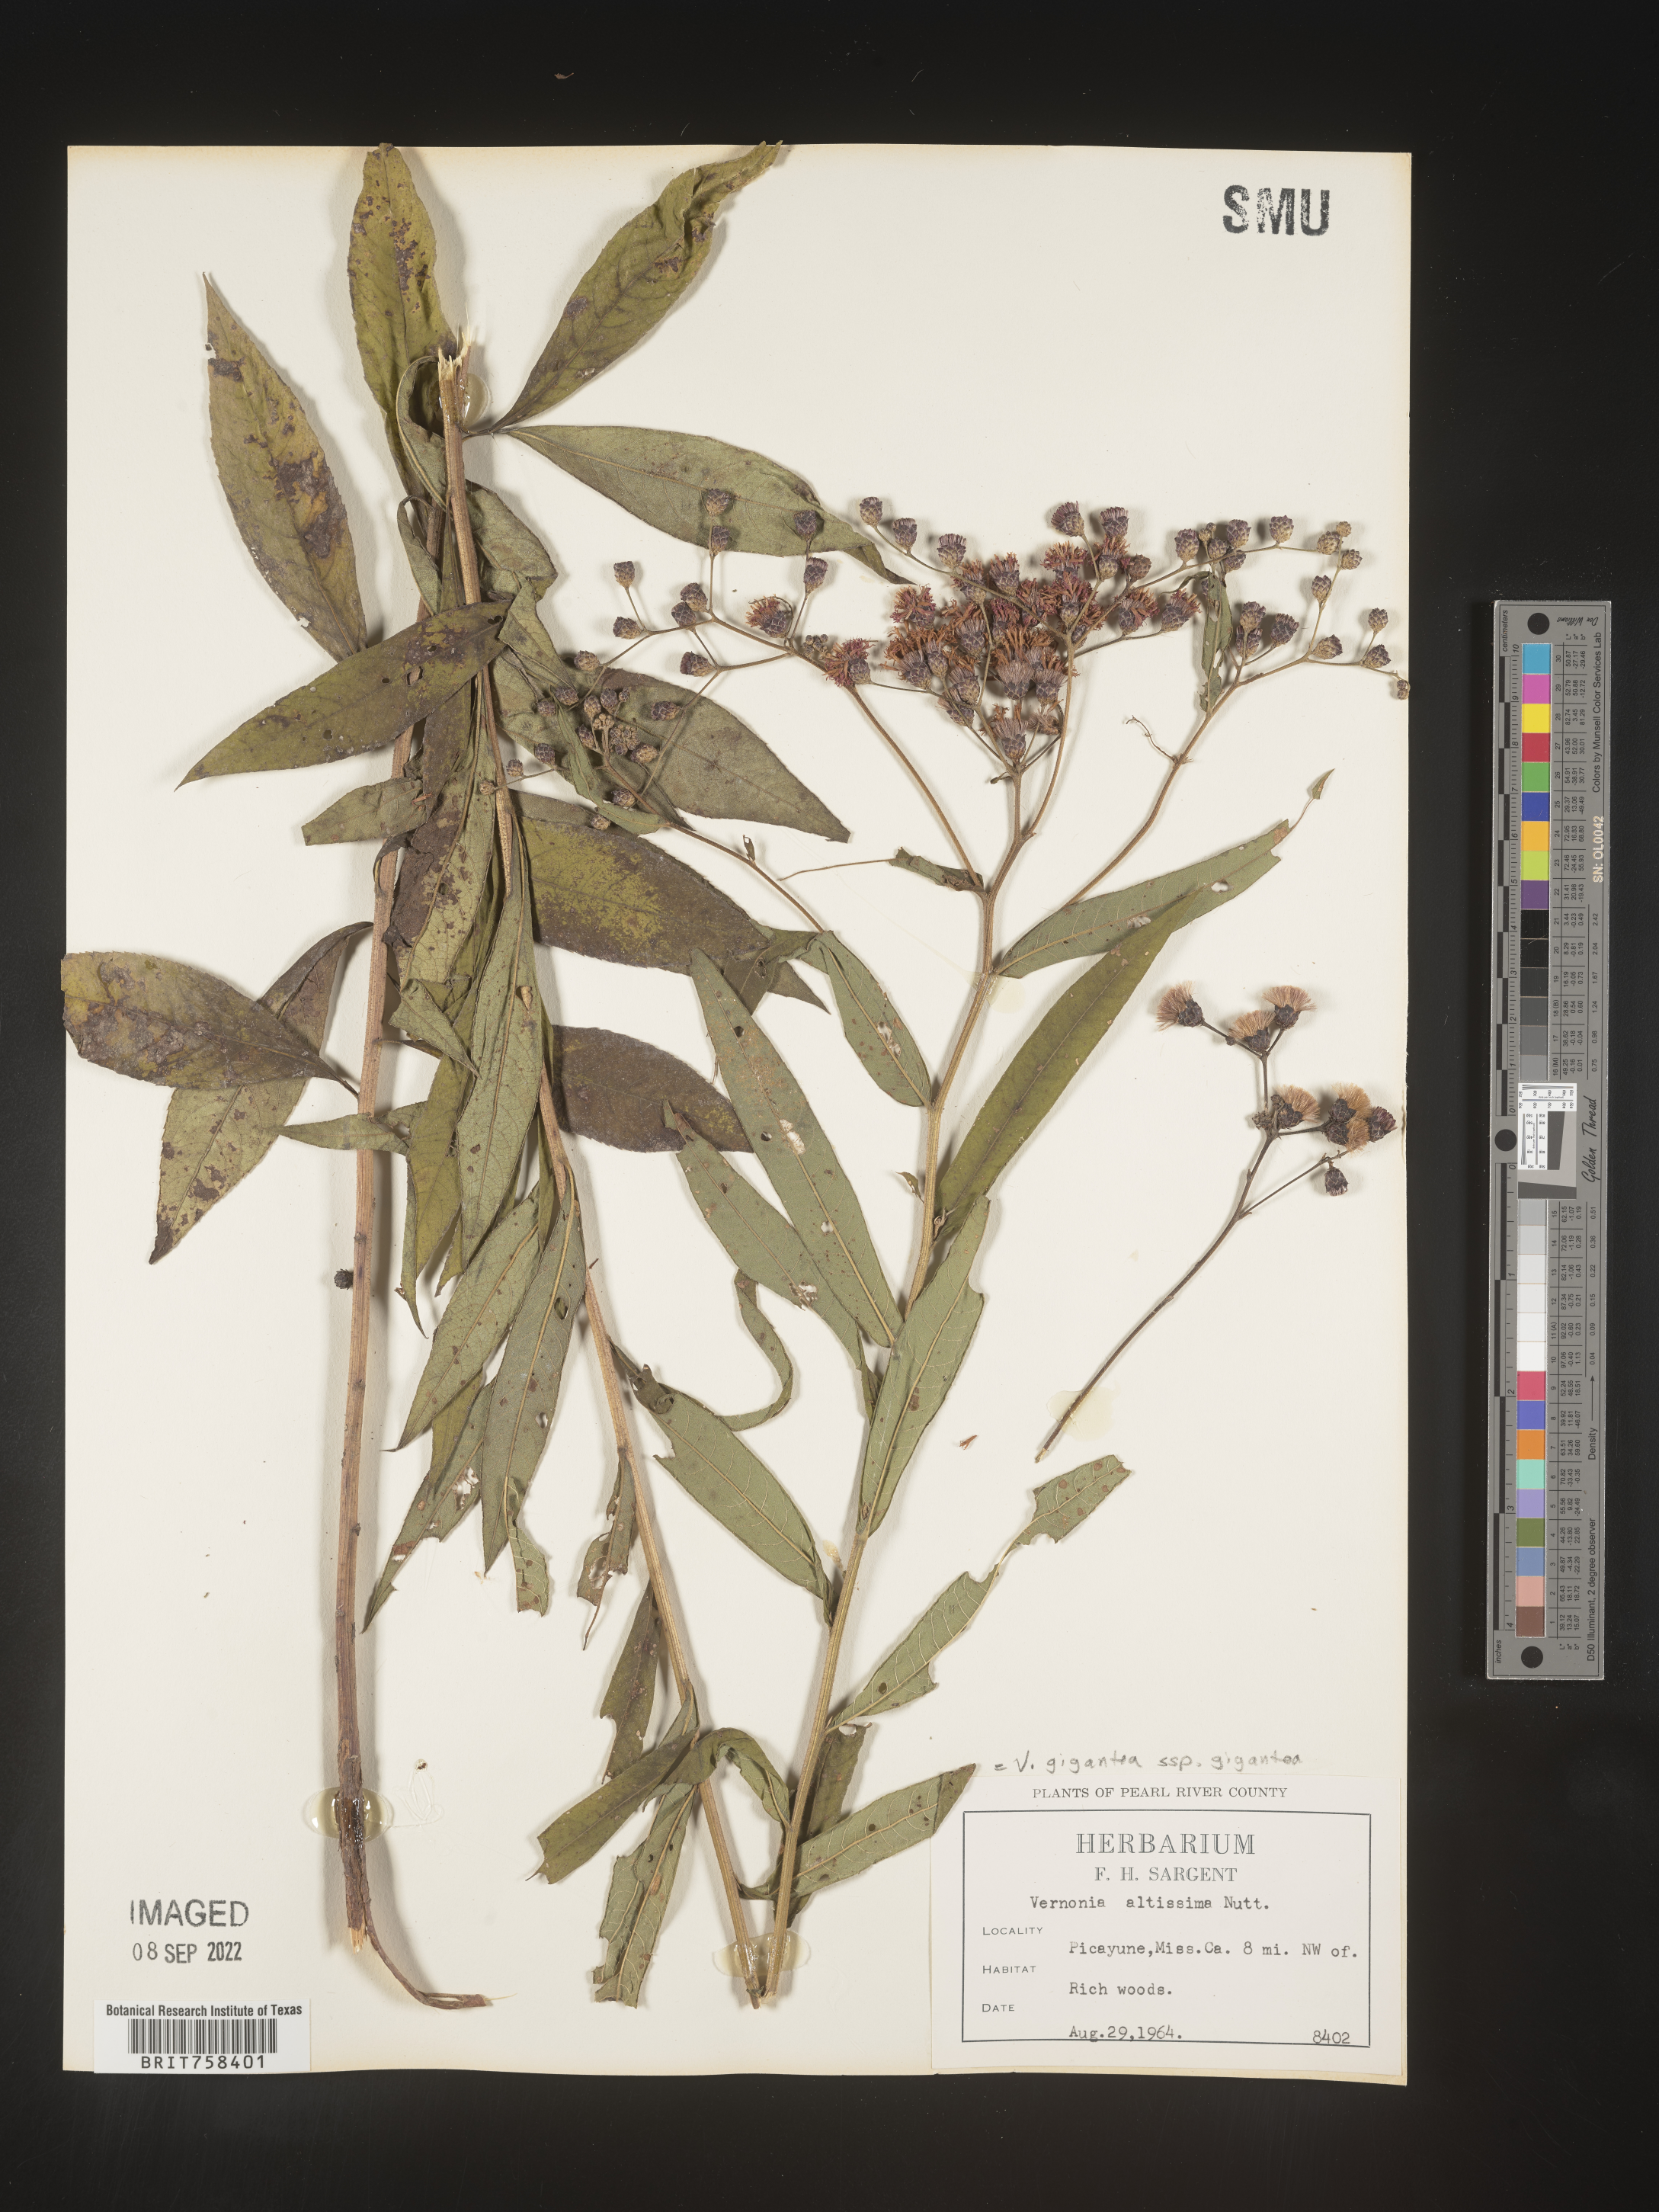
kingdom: Plantae
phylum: Tracheophyta
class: Magnoliopsida
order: Asterales
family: Asteraceae
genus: Vernonia
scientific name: Vernonia gigantea
